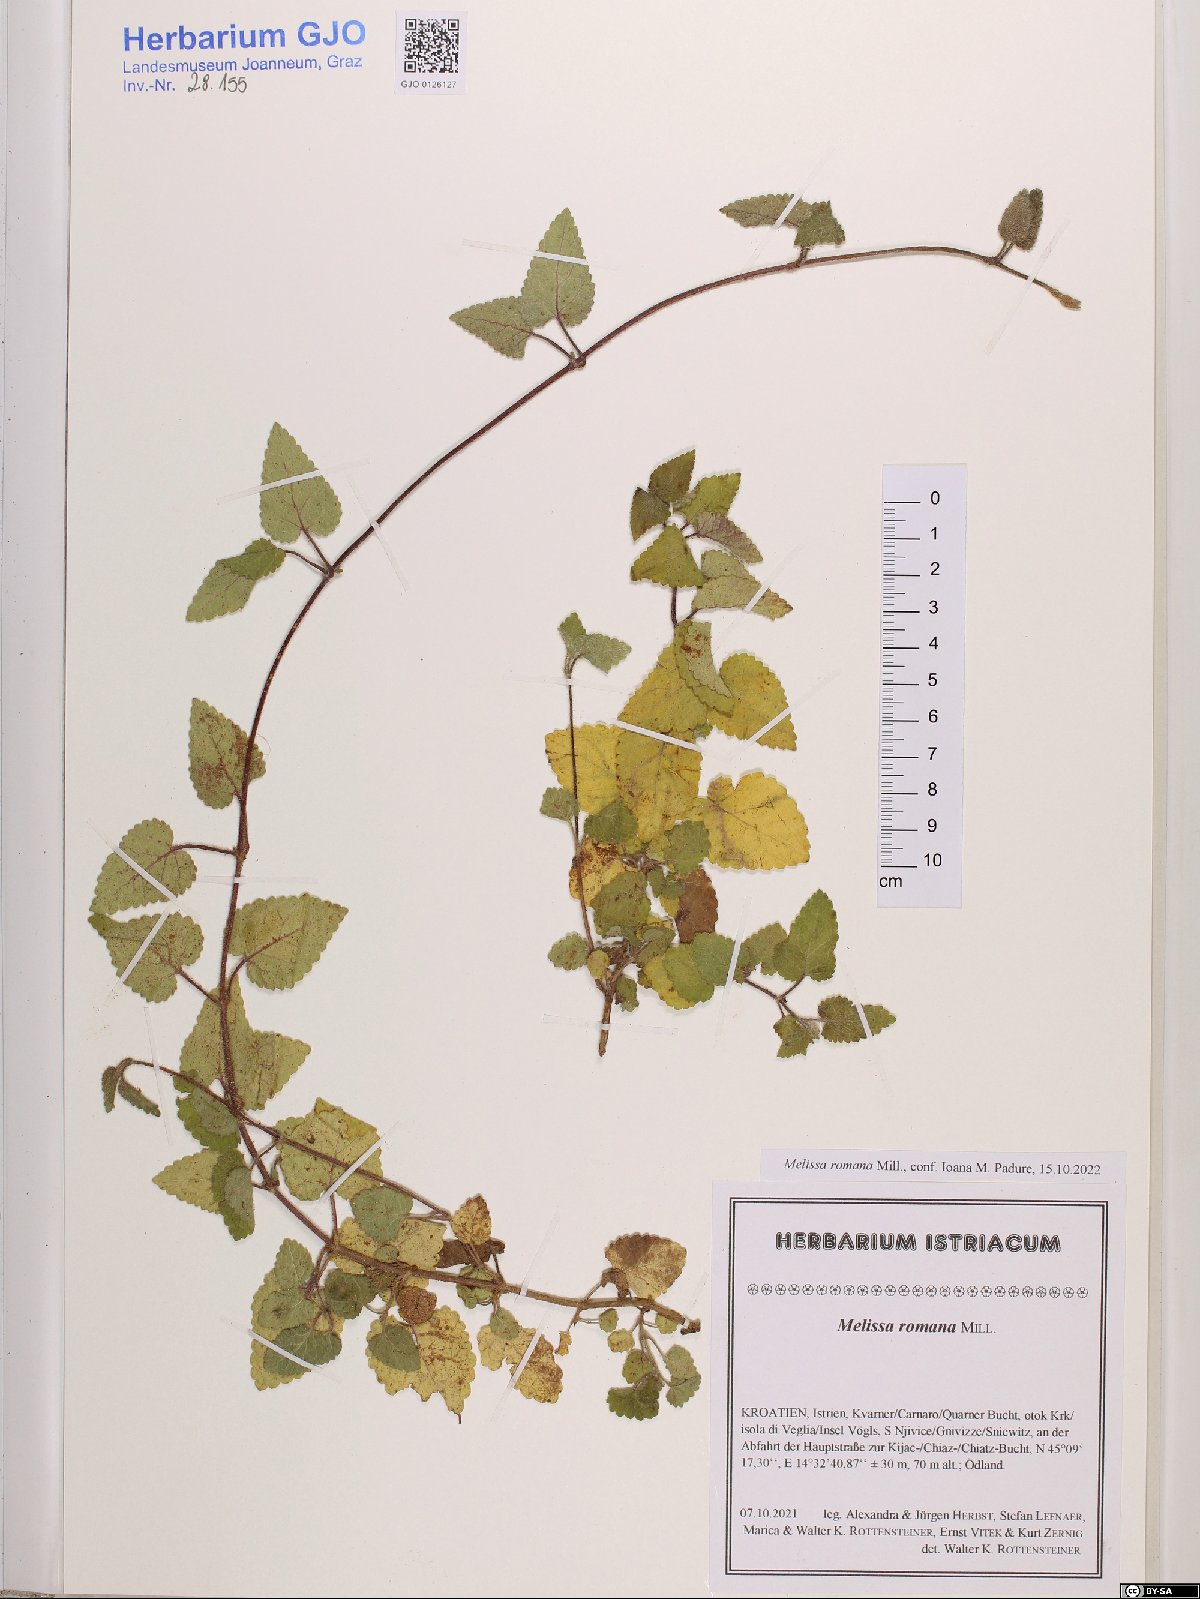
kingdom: Plantae
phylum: Tracheophyta
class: Magnoliopsida
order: Lamiales
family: Lamiaceae
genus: Melissa
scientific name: Melissa officinalis
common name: Balm
